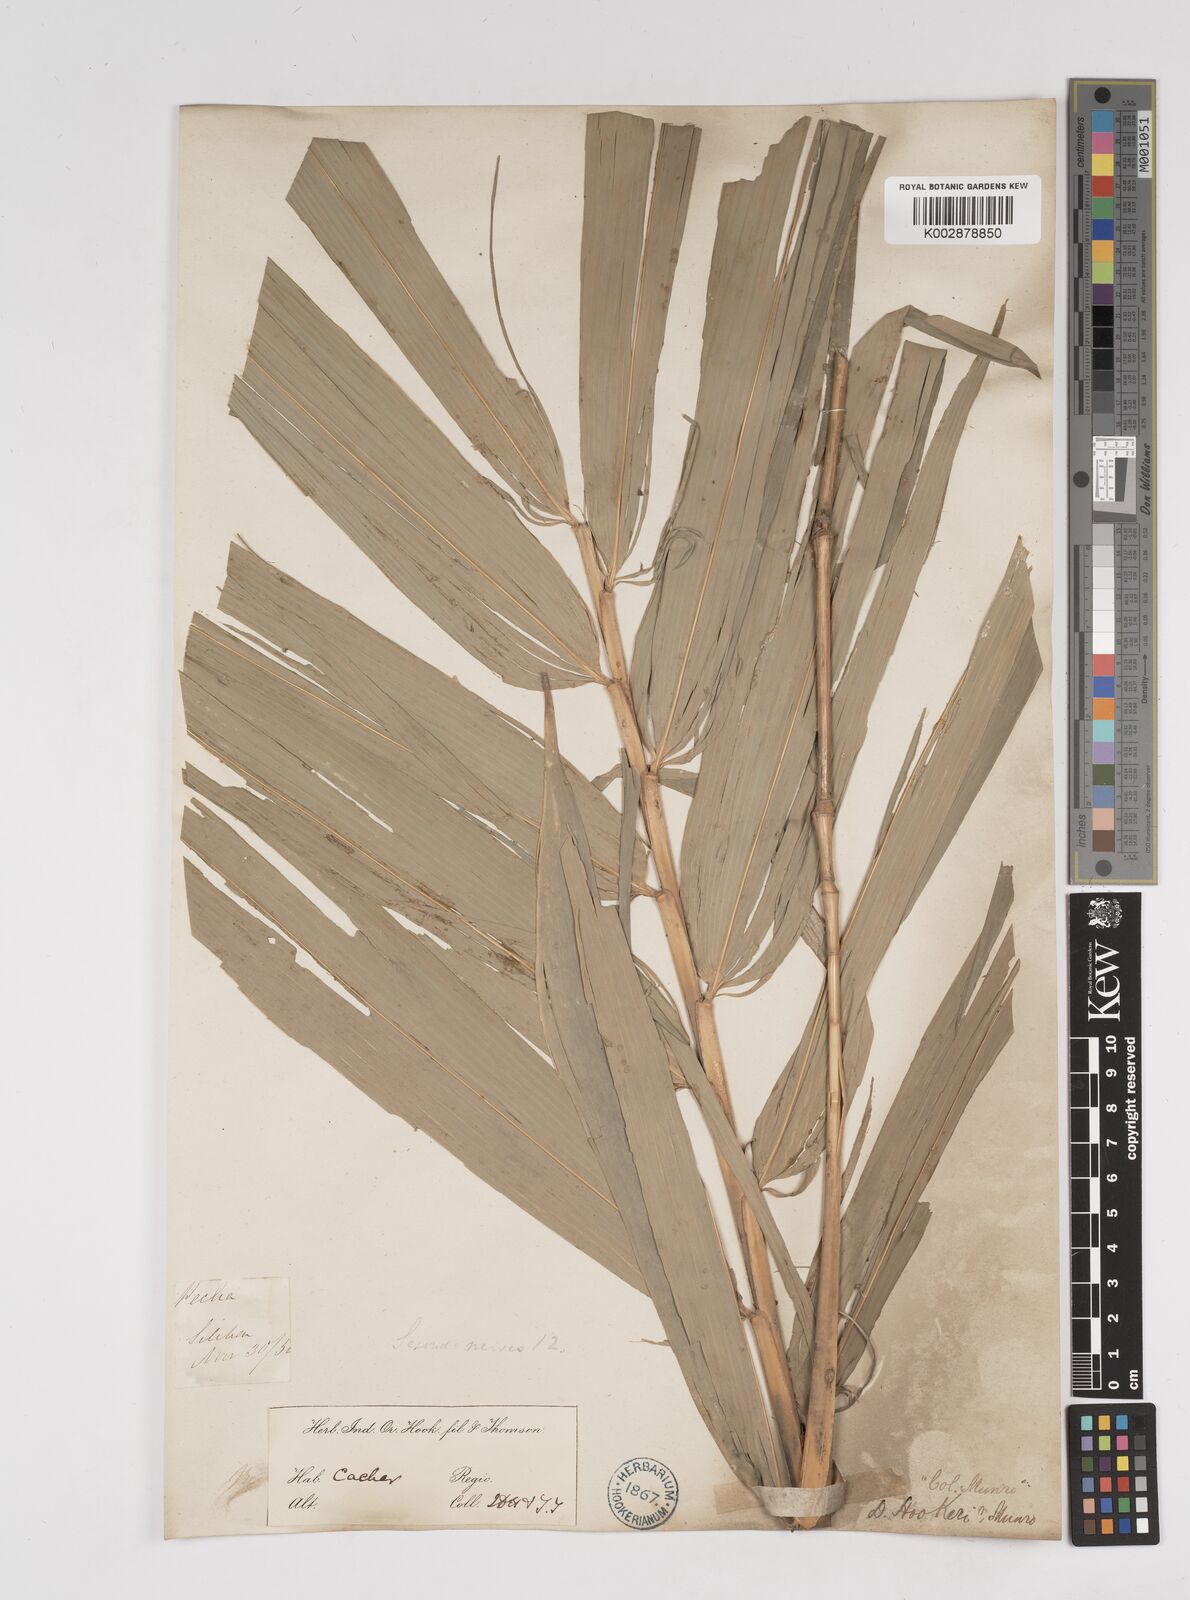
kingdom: Plantae
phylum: Tracheophyta
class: Liliopsida
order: Poales
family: Poaceae
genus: Dendrocalamus
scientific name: Dendrocalamus hookeri
